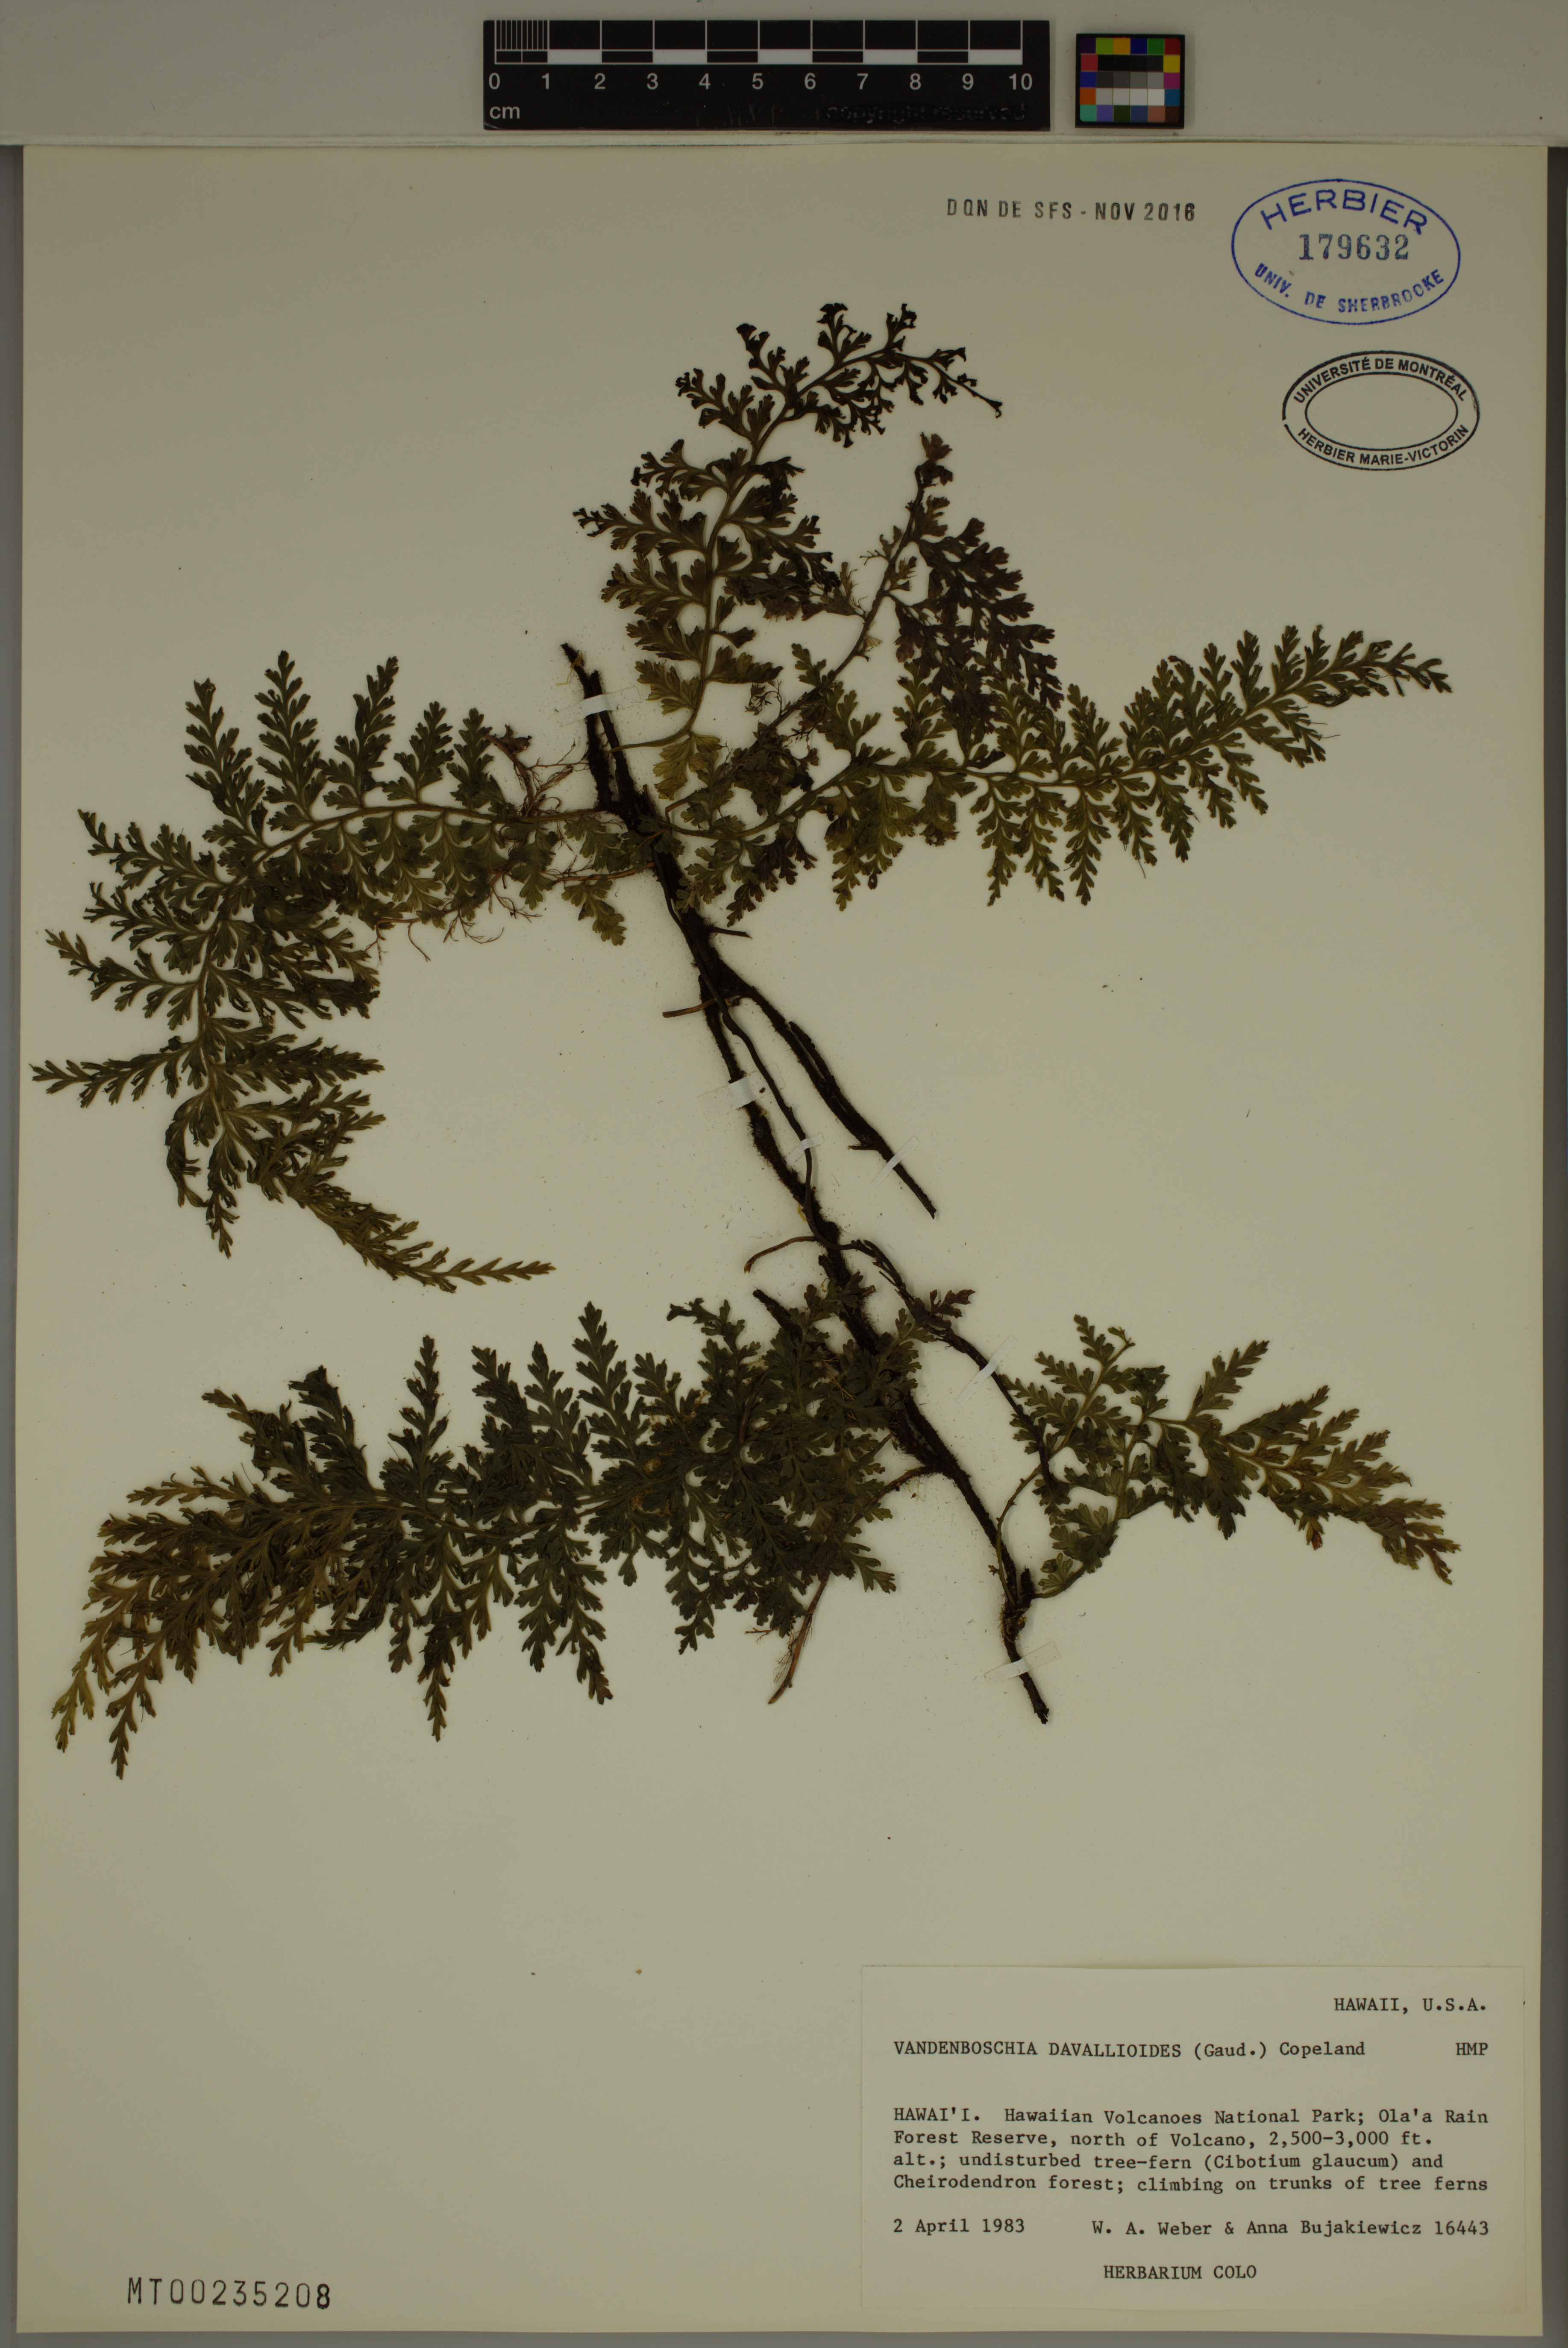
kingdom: Plantae
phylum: Tracheophyta
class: Polypodiopsida
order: Hymenophyllales
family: Hymenophyllaceae
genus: Vandenboschia
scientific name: Vandenboschia davallioides
